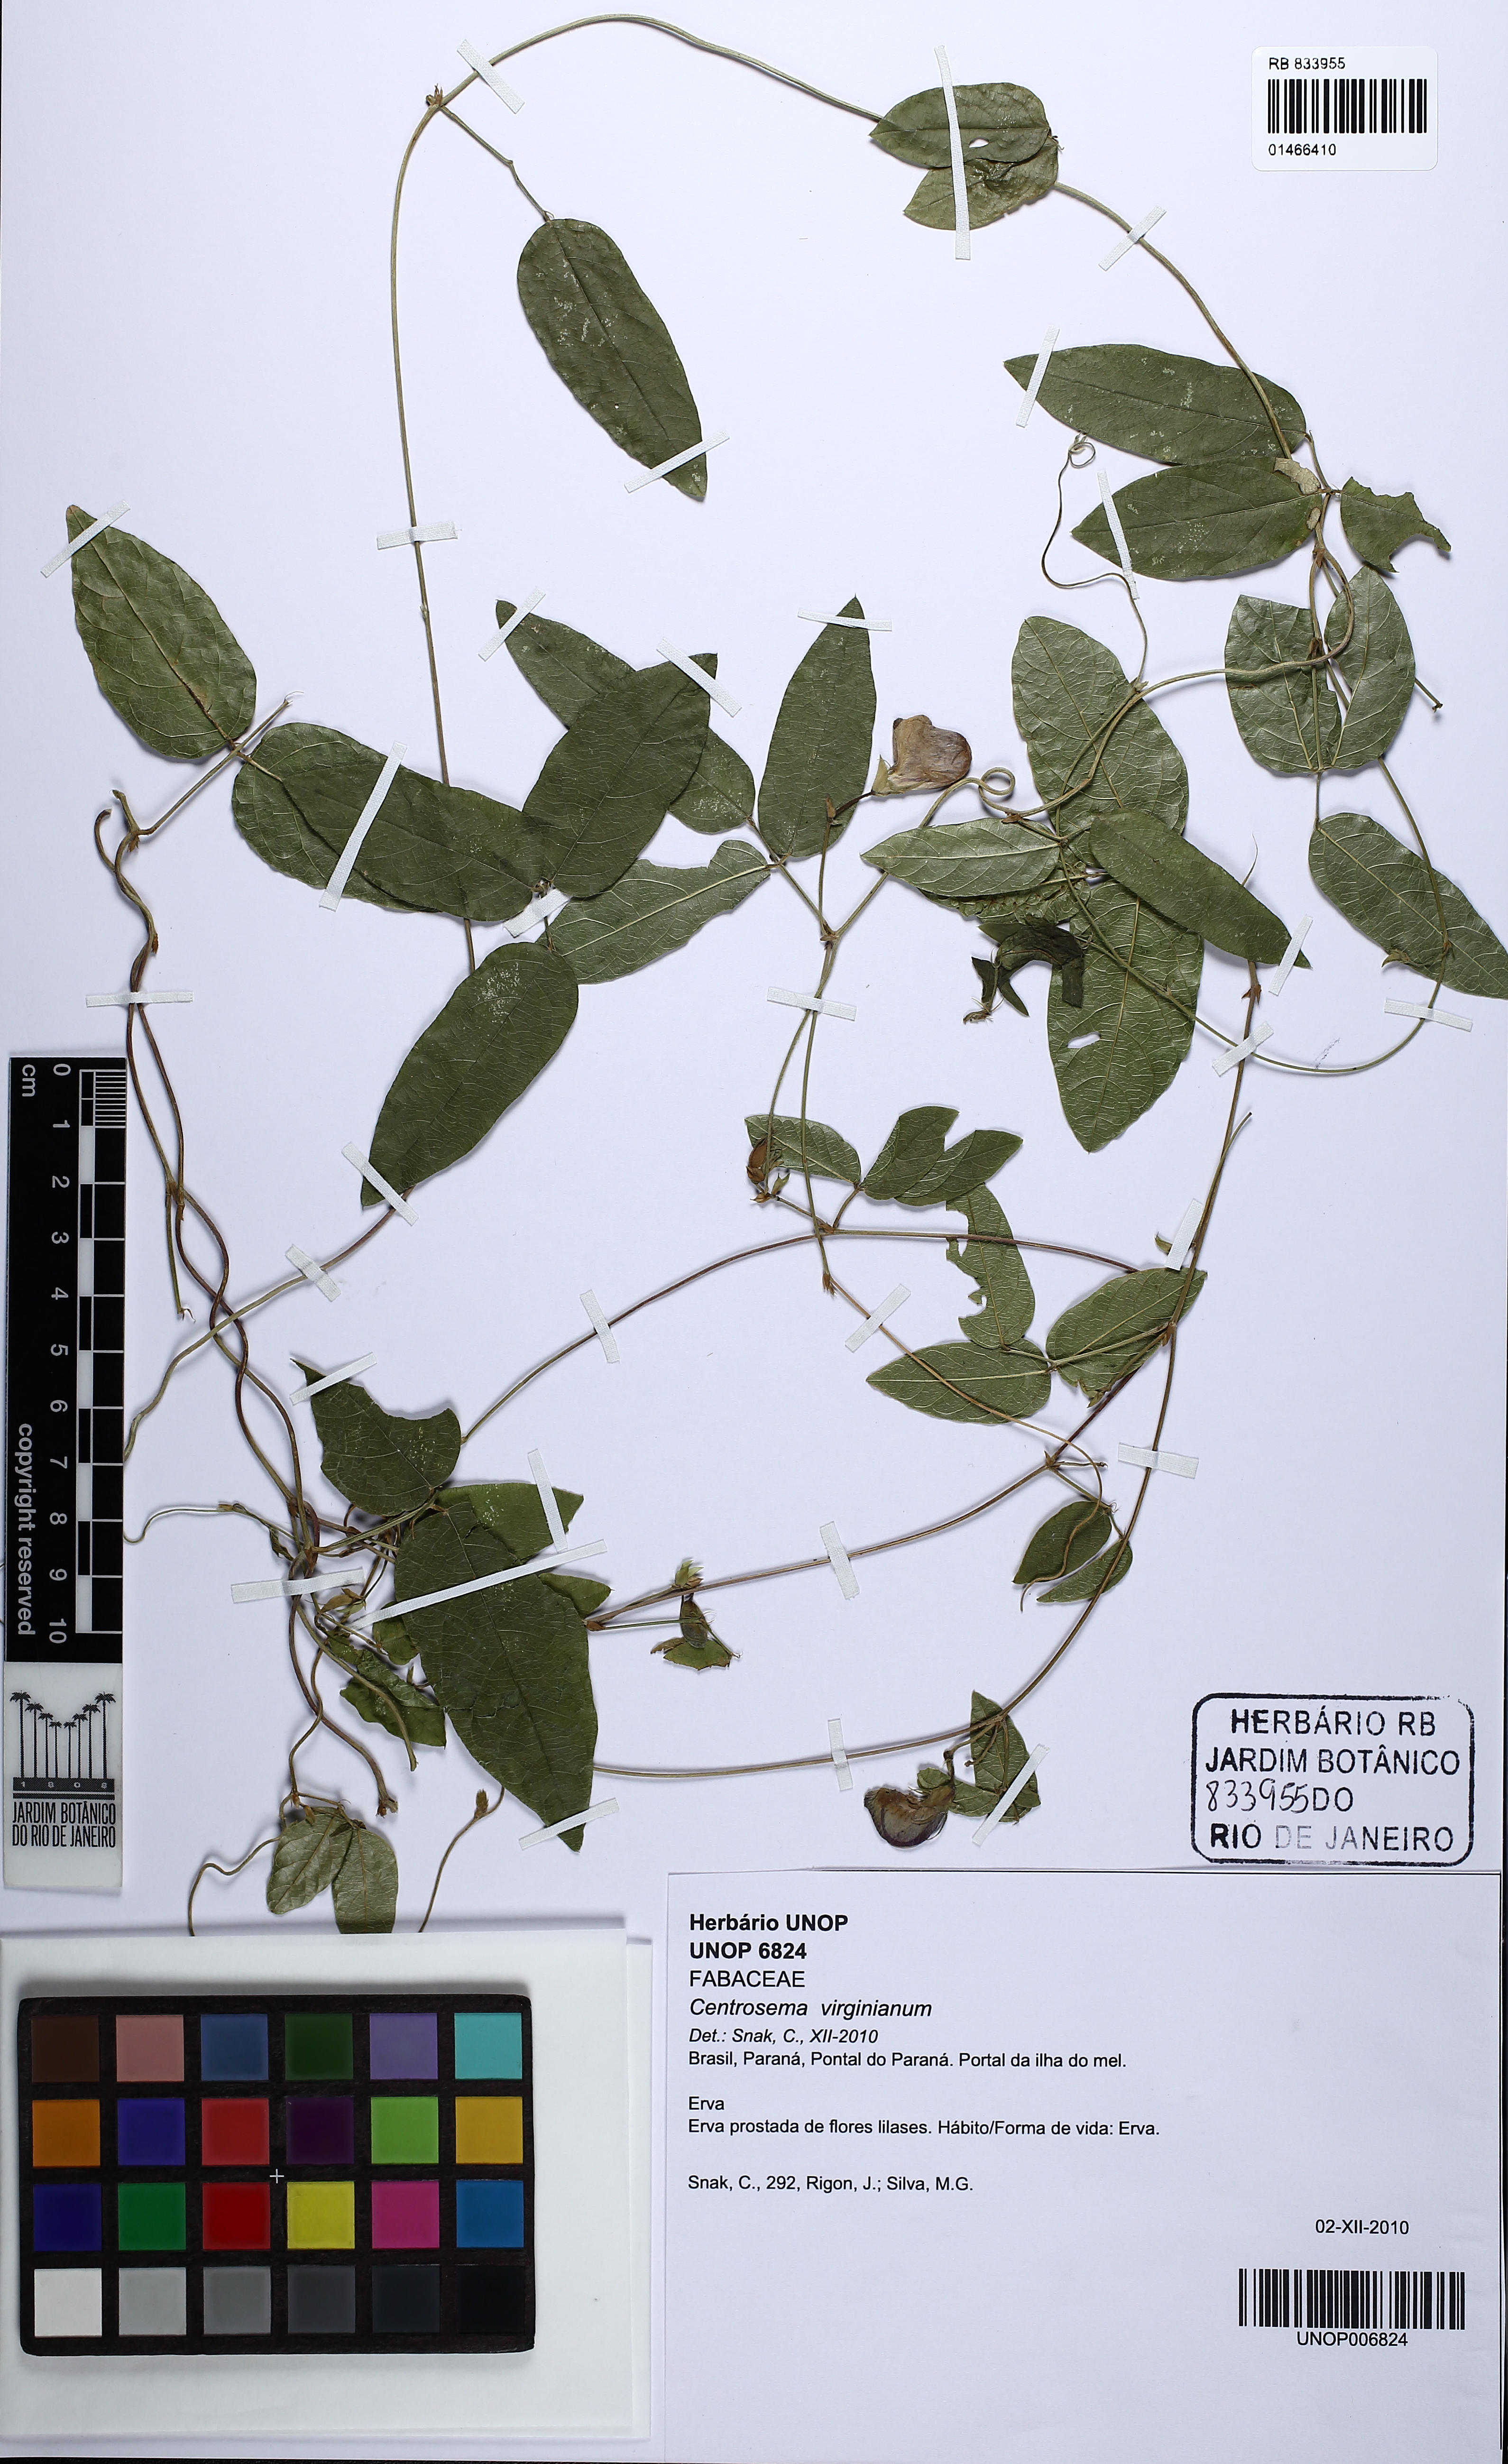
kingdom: Plantae
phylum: Tracheophyta
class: Magnoliopsida
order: Fabales
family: Fabaceae
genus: Centrosema
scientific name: Centrosema virginianum
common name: Butterfly-pea
